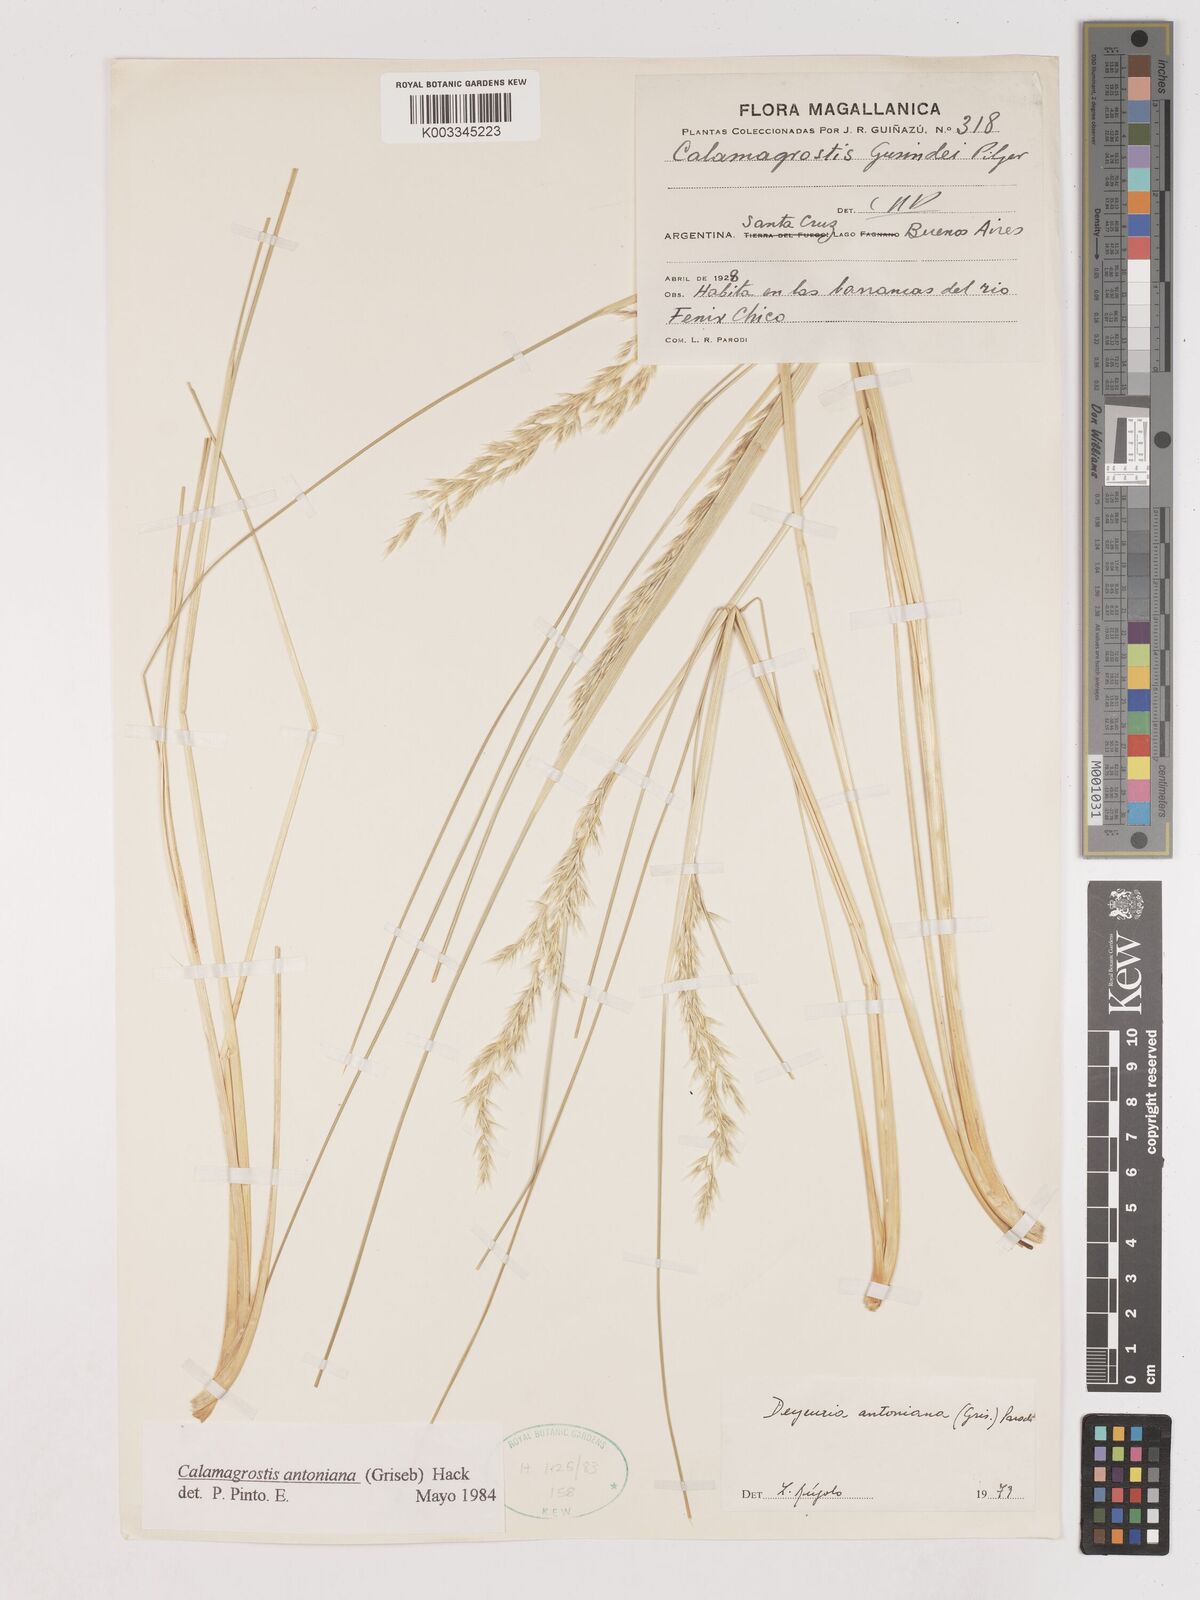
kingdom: Plantae
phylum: Tracheophyta
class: Liliopsida
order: Poales
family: Poaceae
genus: Cinnagrostis
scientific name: Cinnagrostis rigida
